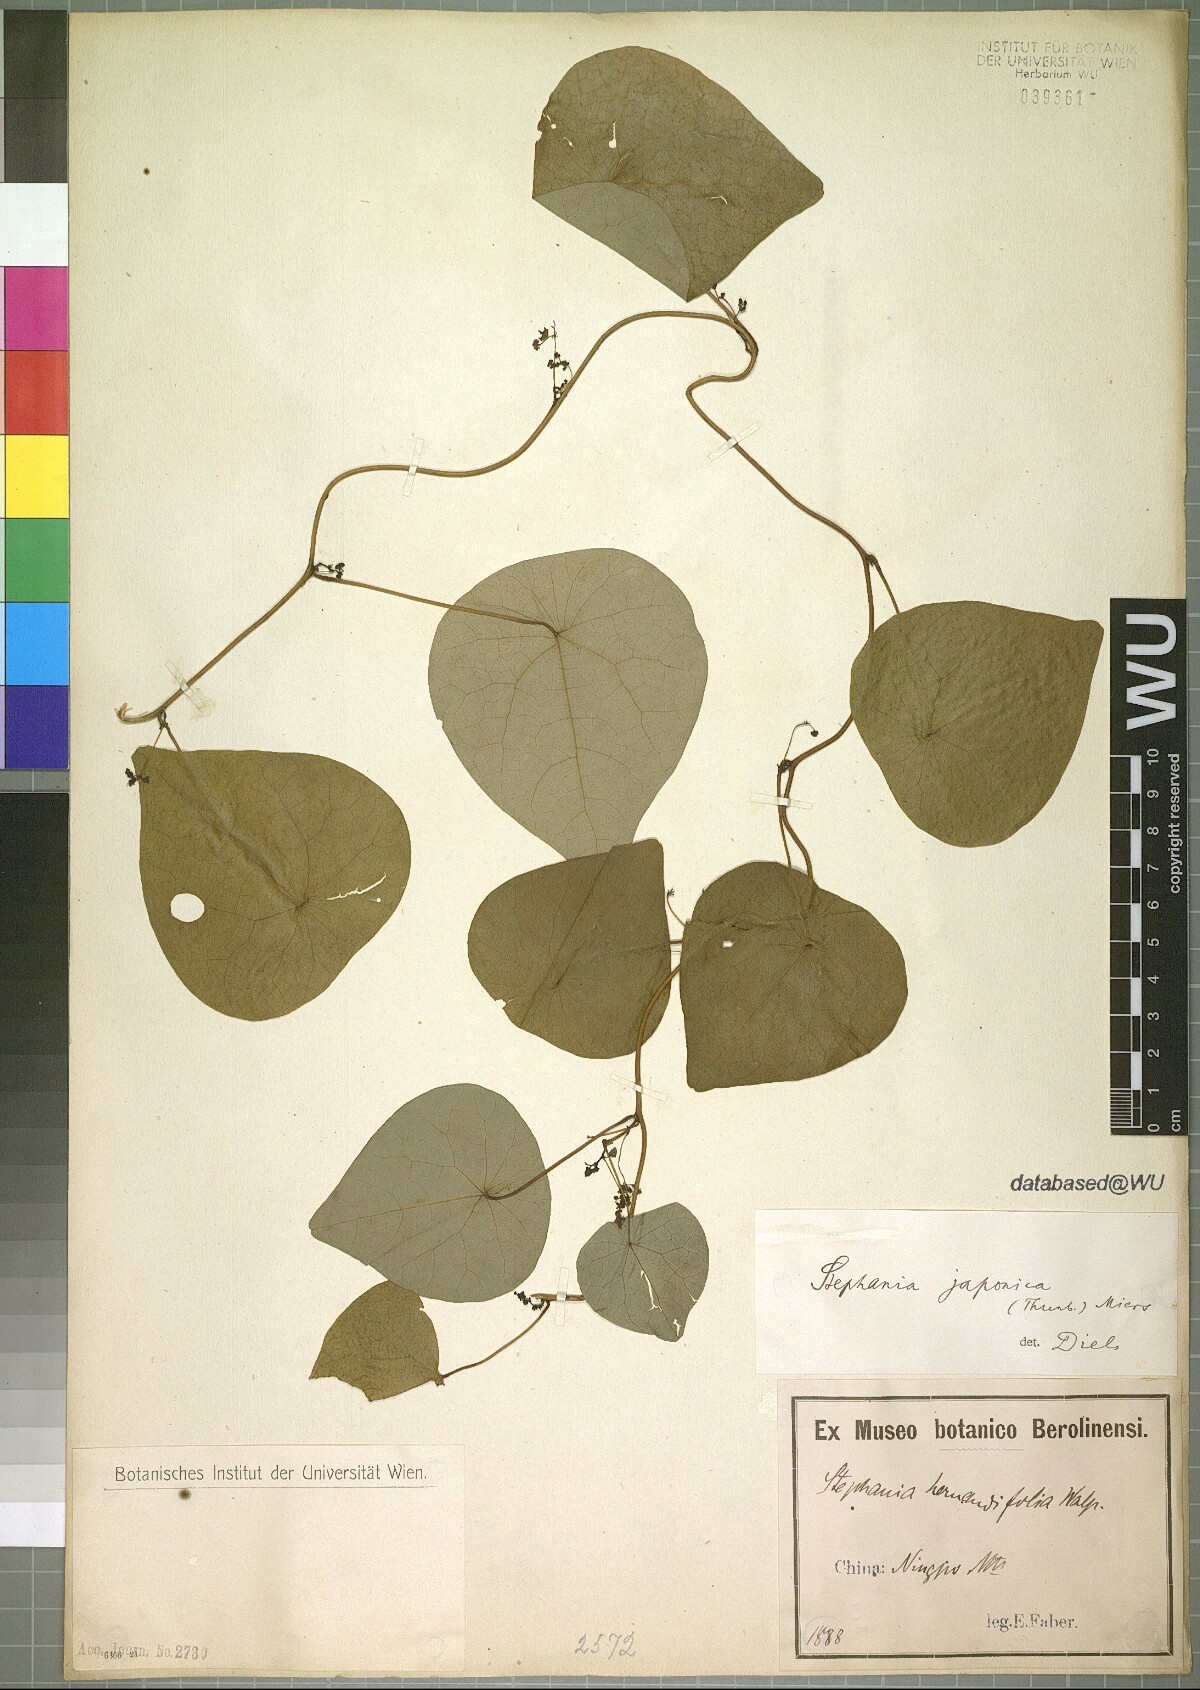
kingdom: Plantae
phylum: Tracheophyta
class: Magnoliopsida
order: Ranunculales
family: Menispermaceae
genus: Stephania
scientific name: Stephania japonica
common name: Snake vine
